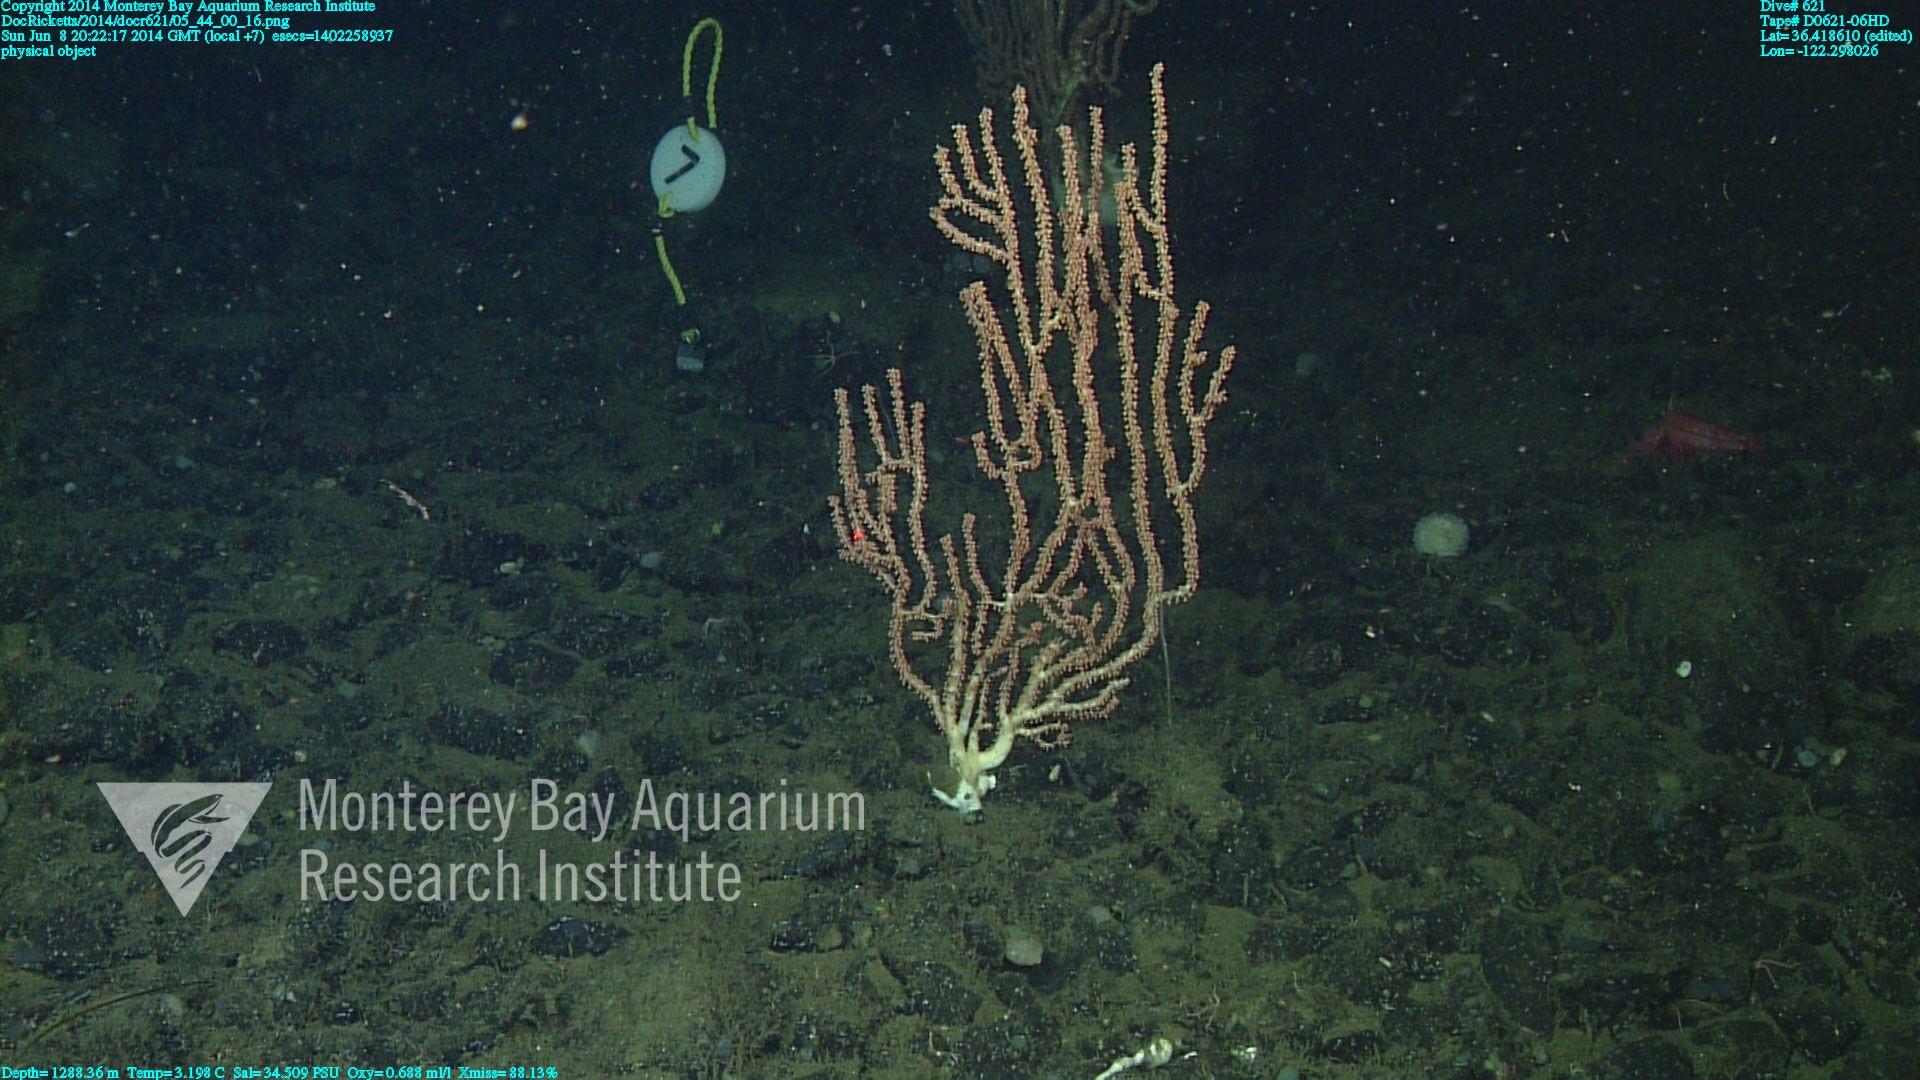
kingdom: Animalia
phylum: Cnidaria
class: Anthozoa
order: Scleralcyonacea
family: Keratoisididae
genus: Keratoisis
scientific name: Keratoisis
